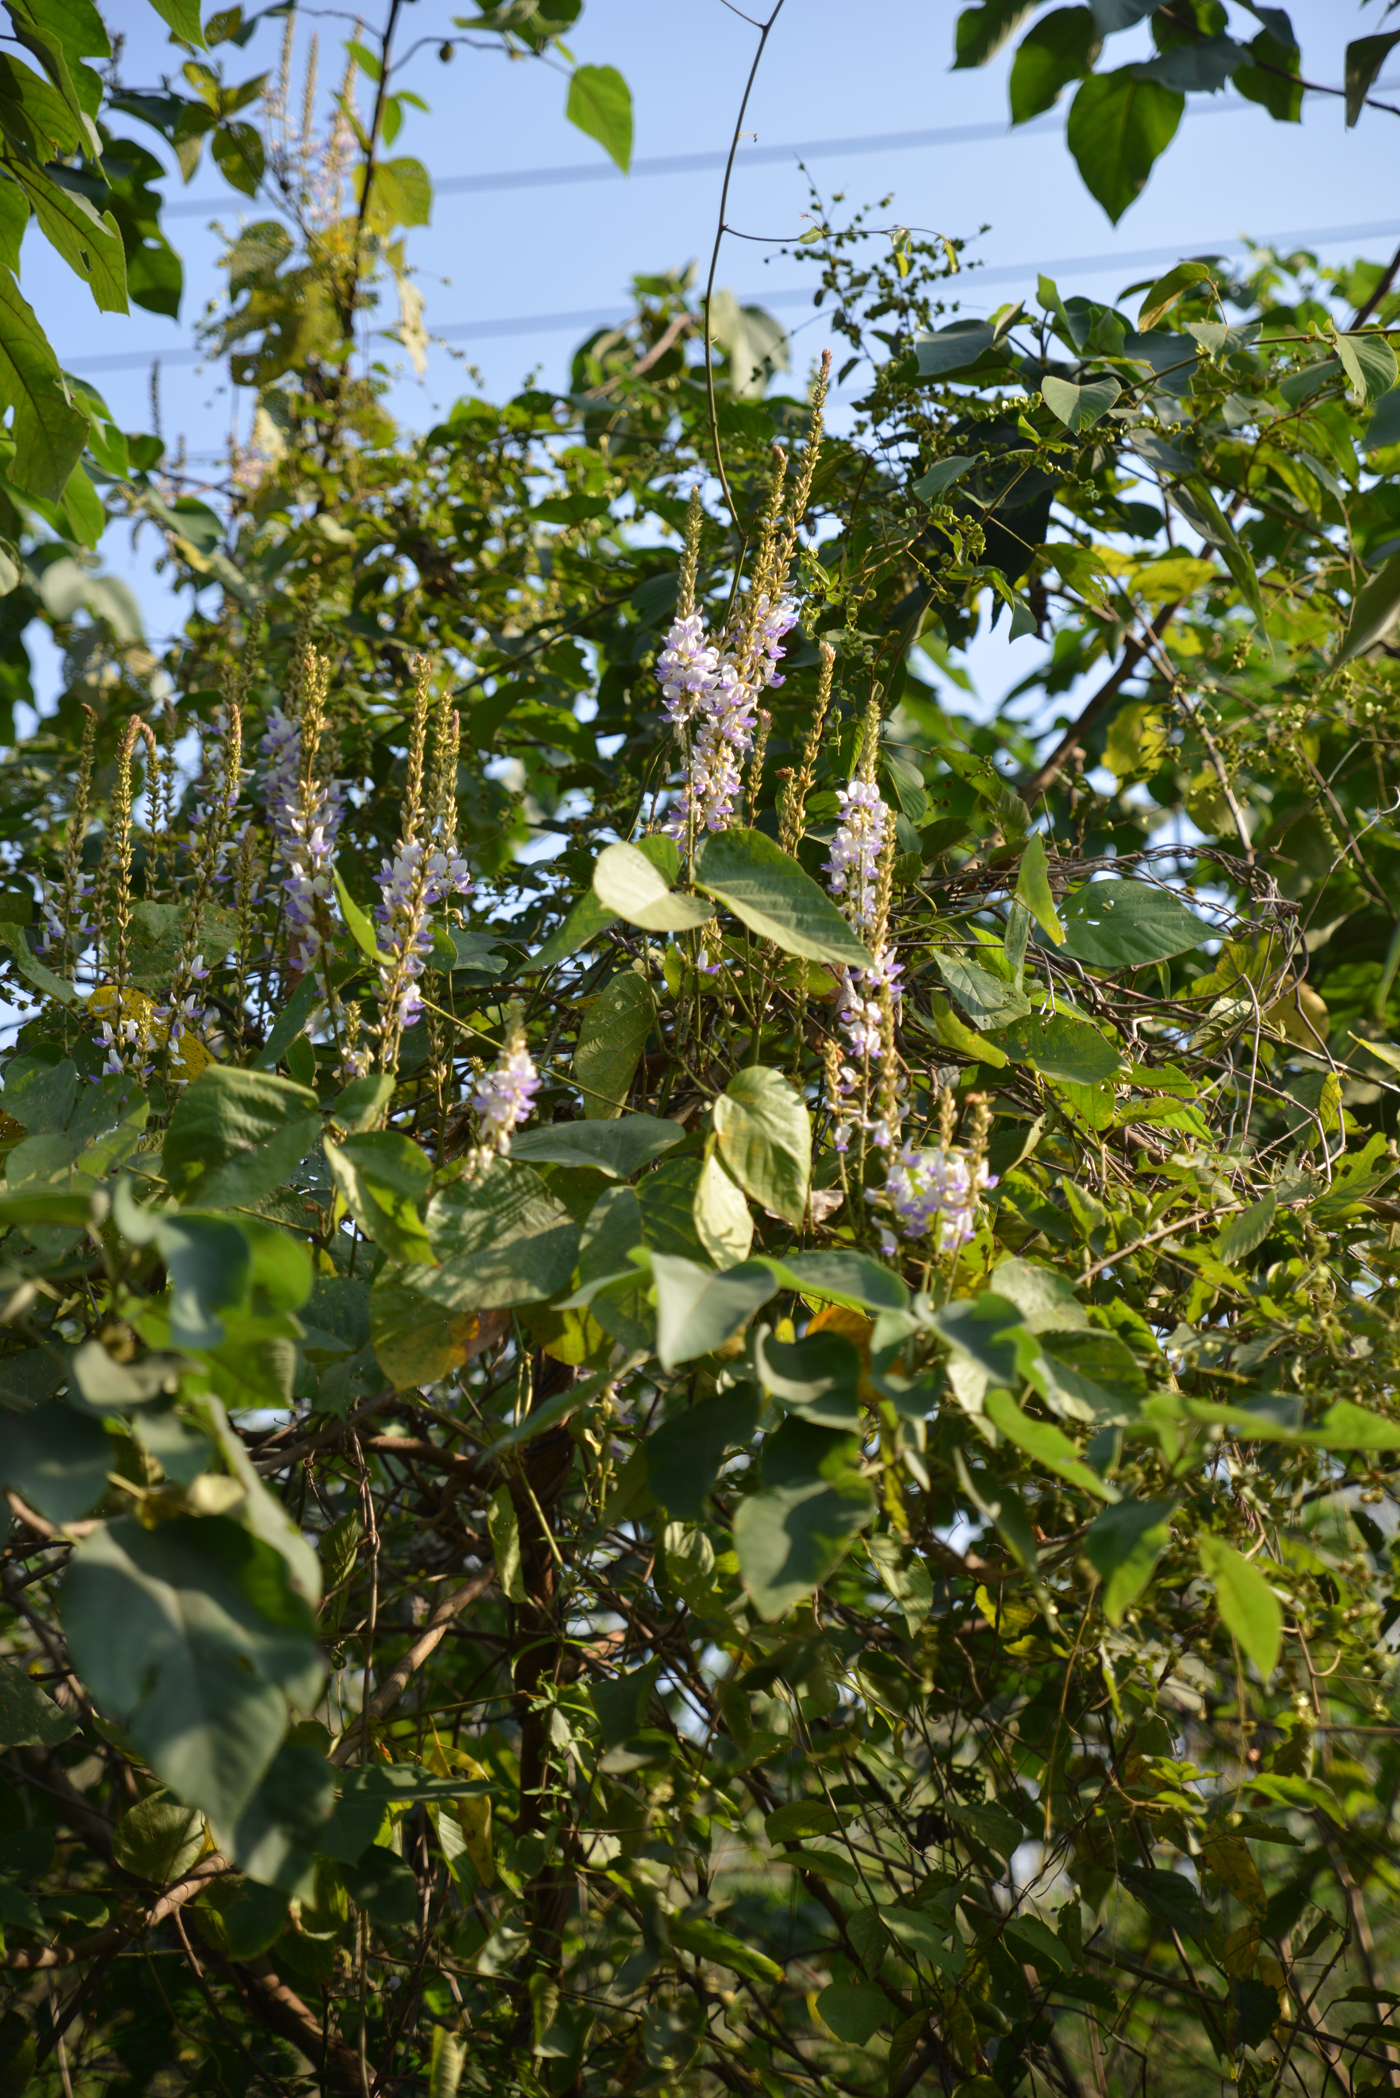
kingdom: Plantae
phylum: Tracheophyta
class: Magnoliopsida
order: Fabales
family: Fabaceae
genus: Pueraria
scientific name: Pueraria imbricata
